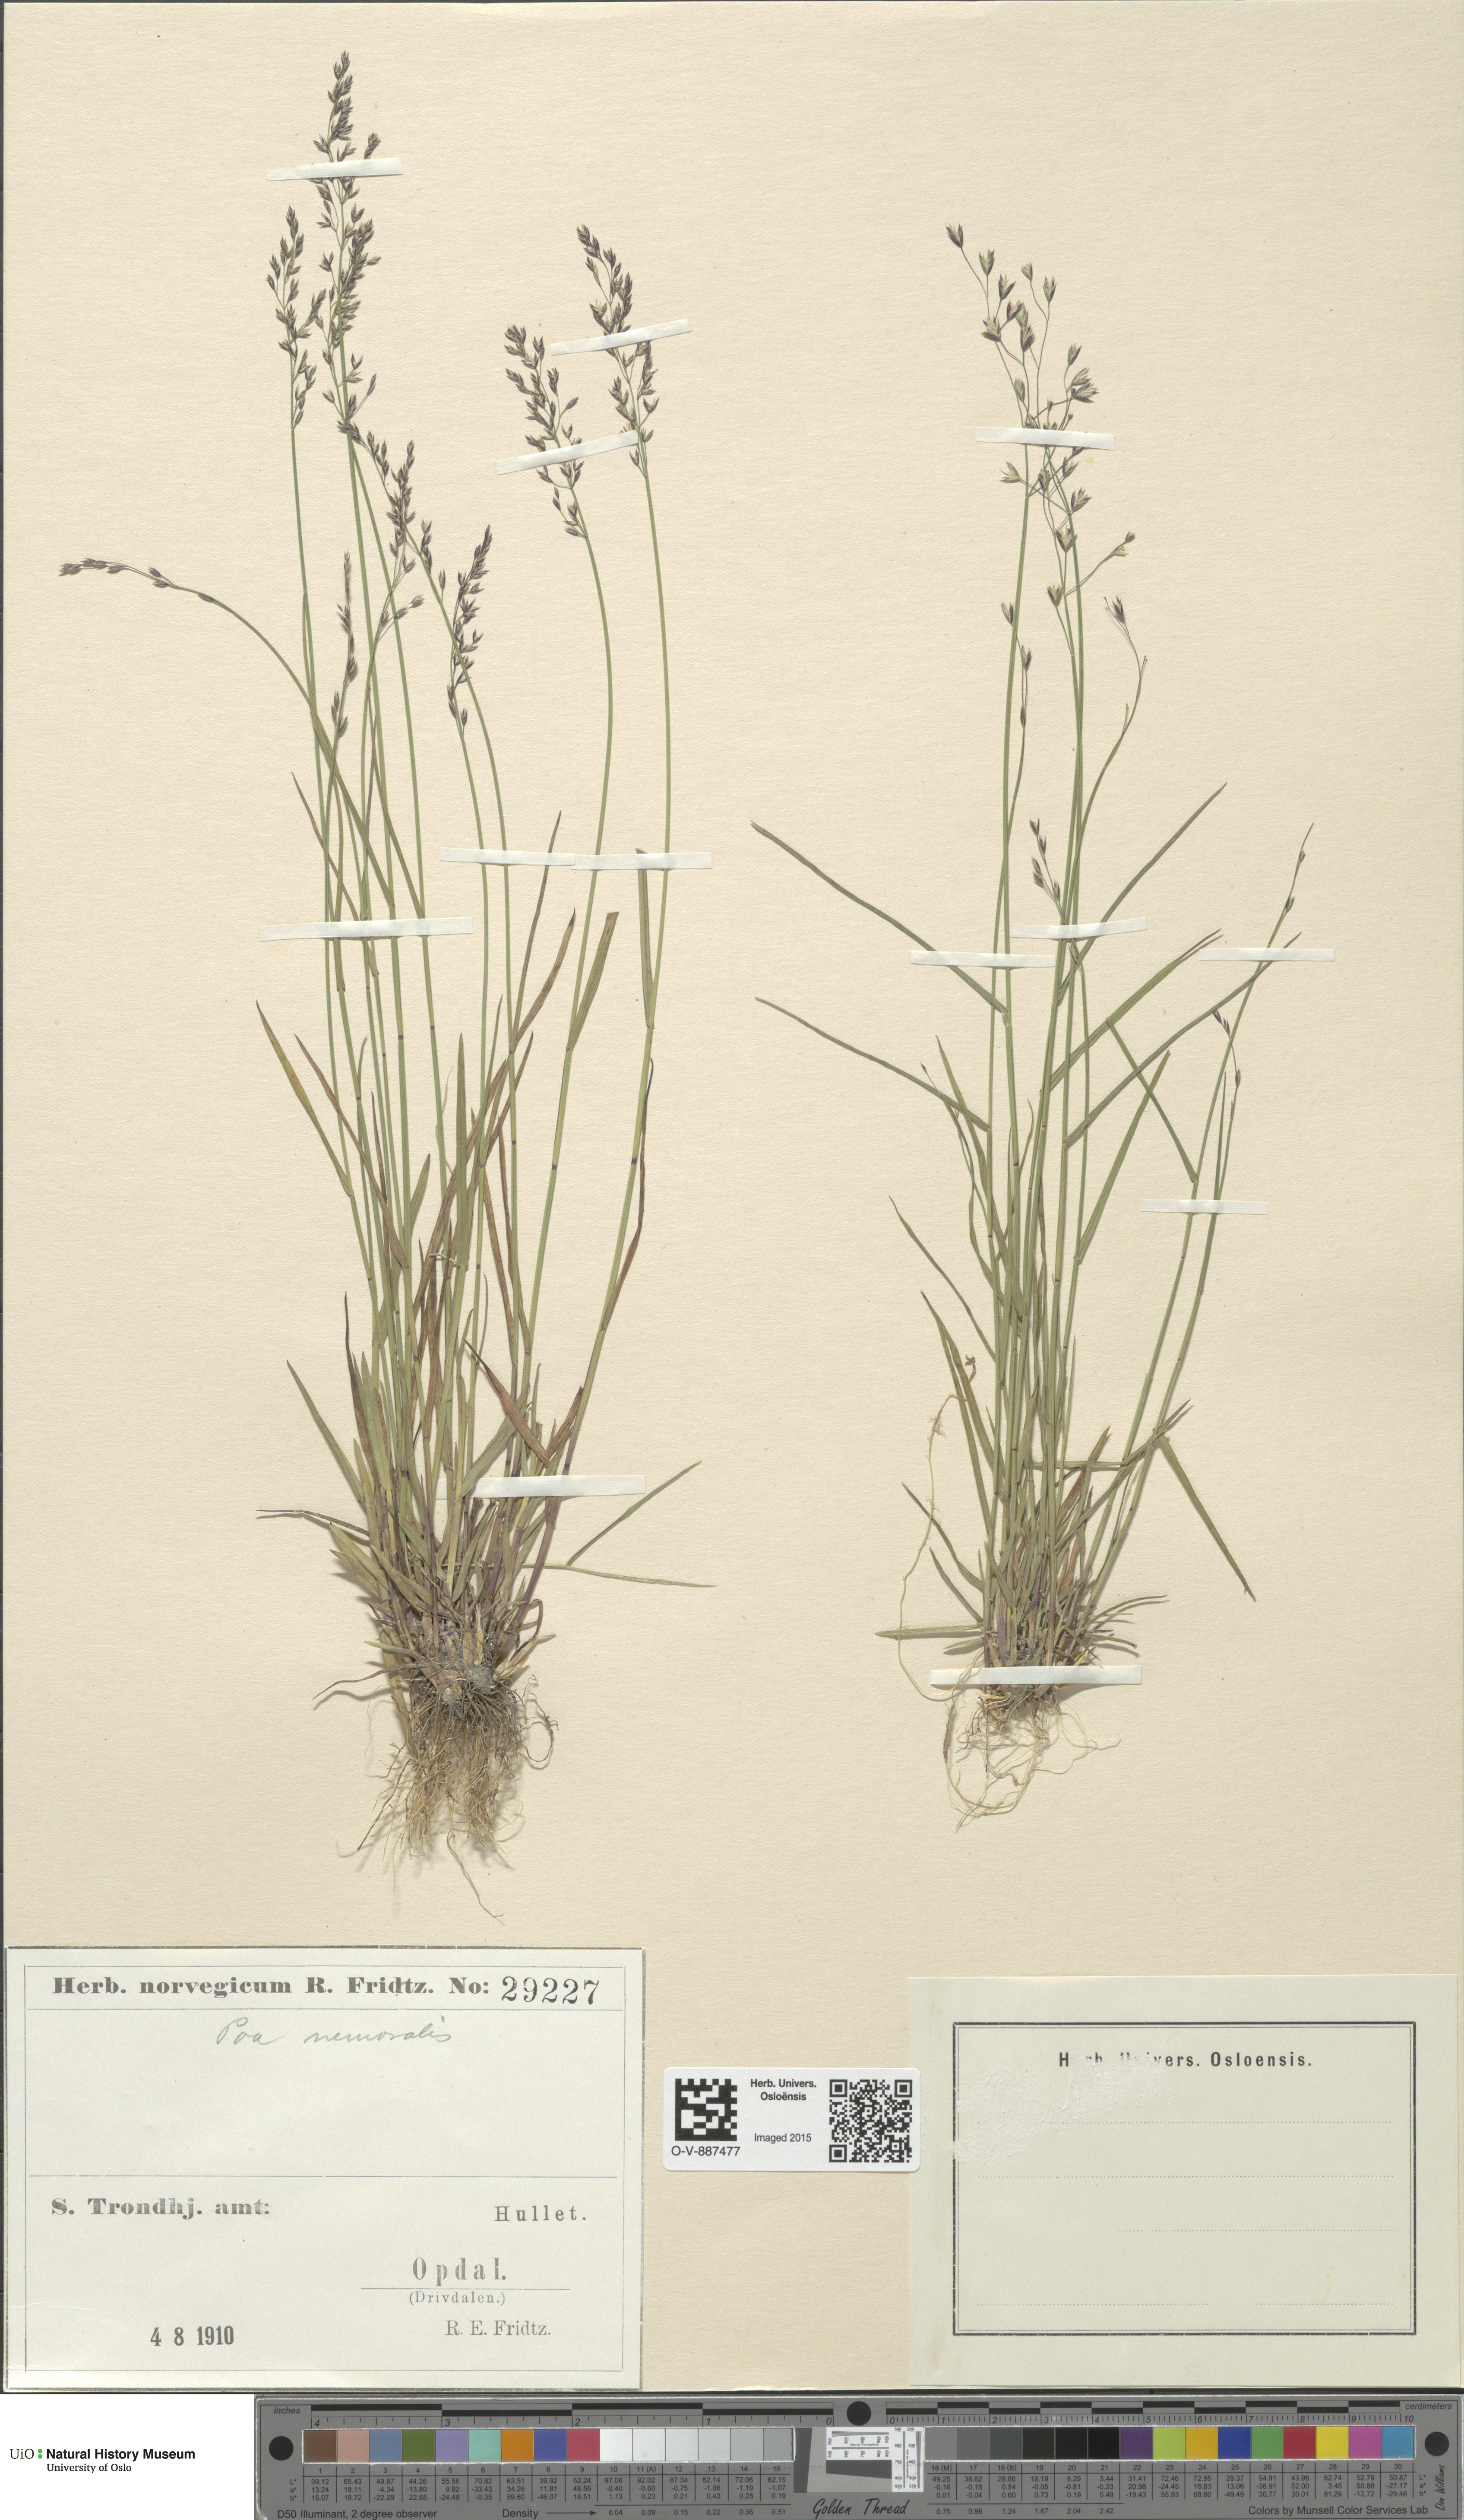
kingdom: Plantae
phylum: Tracheophyta
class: Liliopsida
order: Poales
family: Poaceae
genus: Poa
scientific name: Poa nemoralis
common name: Wood bluegrass
